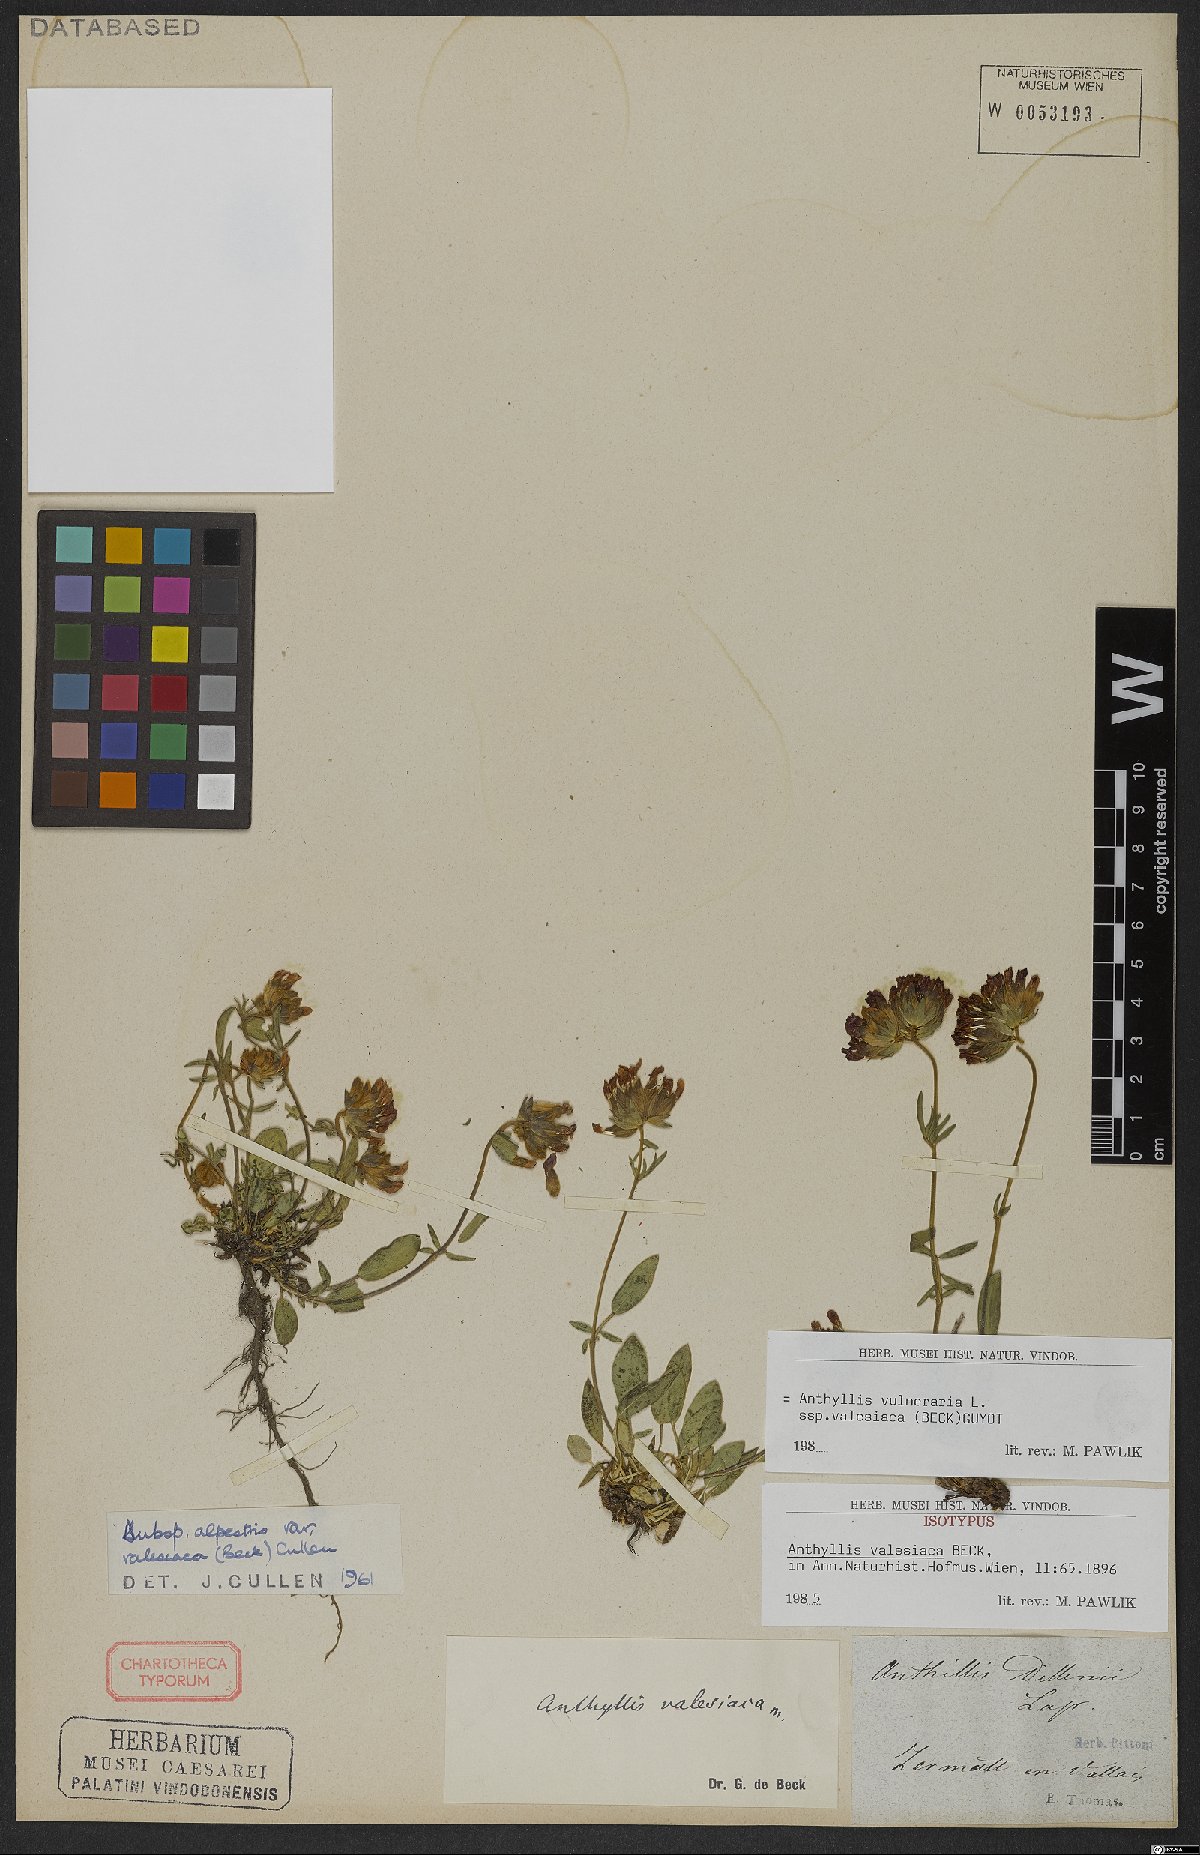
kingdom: Plantae
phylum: Tracheophyta
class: Magnoliopsida
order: Fabales
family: Fabaceae
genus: Anthyllis
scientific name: Anthyllis vulneraria
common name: Kidney vetch
